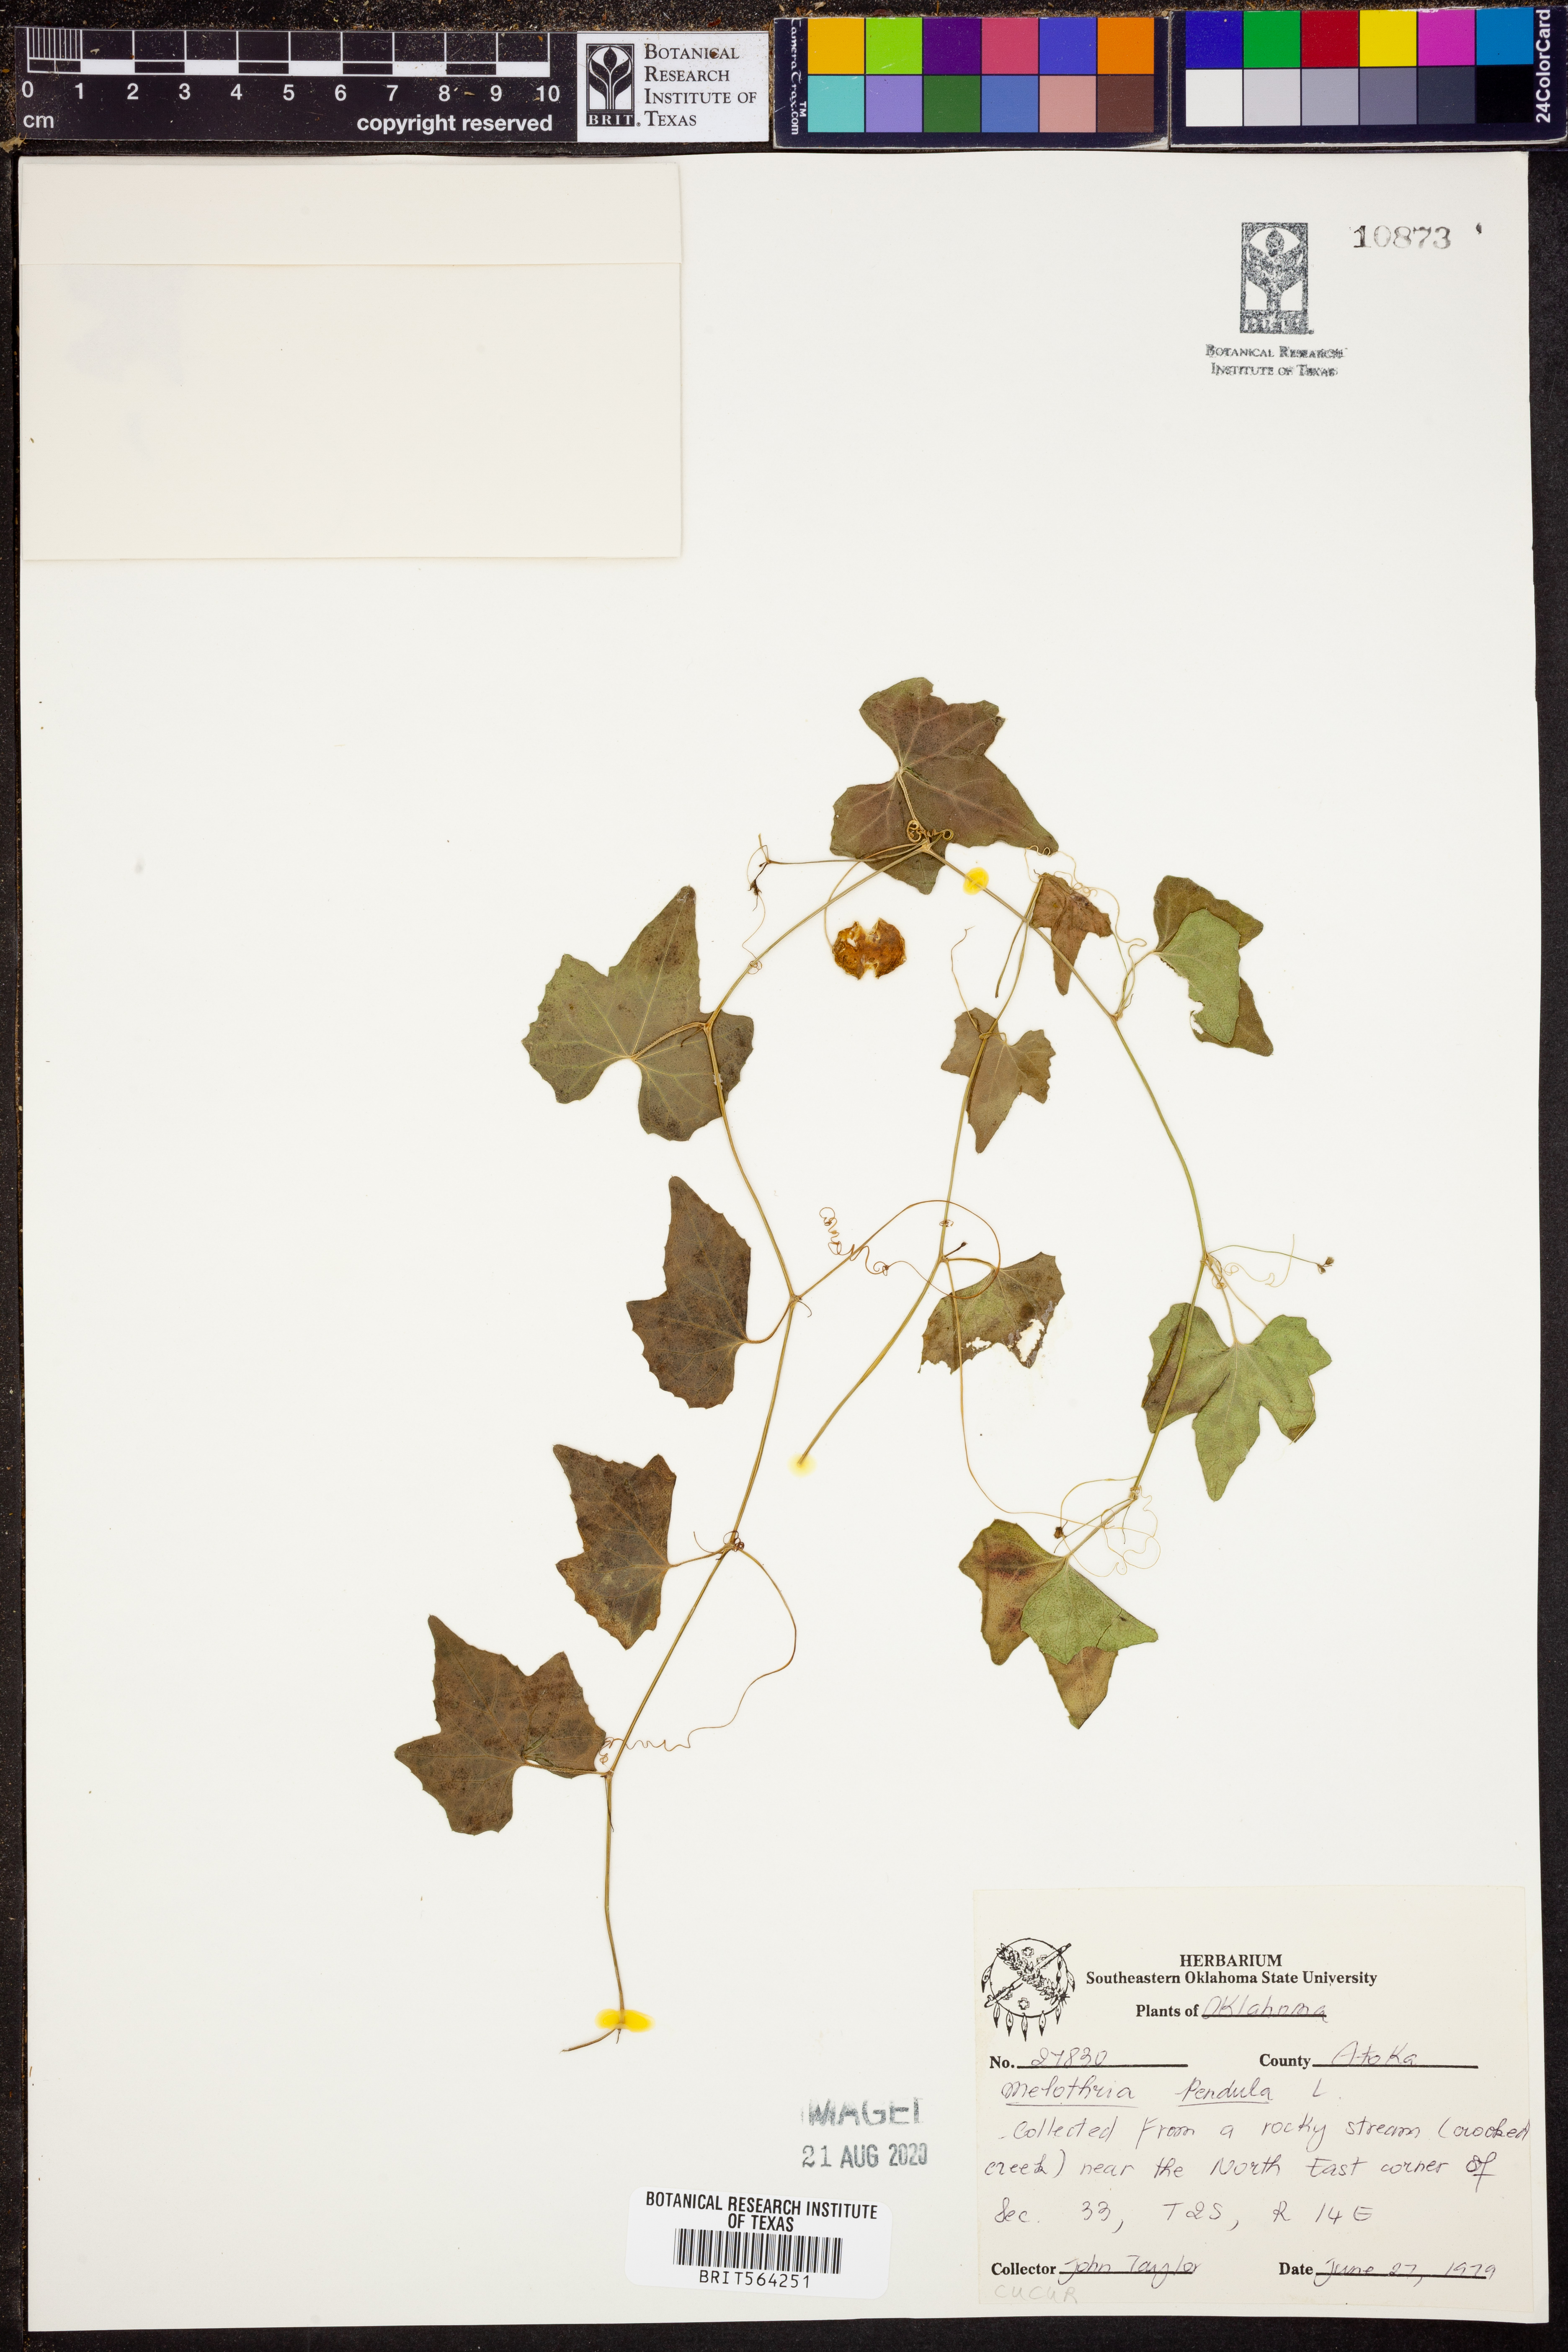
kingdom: Plantae
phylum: Tracheophyta
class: Magnoliopsida
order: Cucurbitales
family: Cucurbitaceae
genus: Melothria
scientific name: Melothria pendula
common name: Creeping-cucumber
